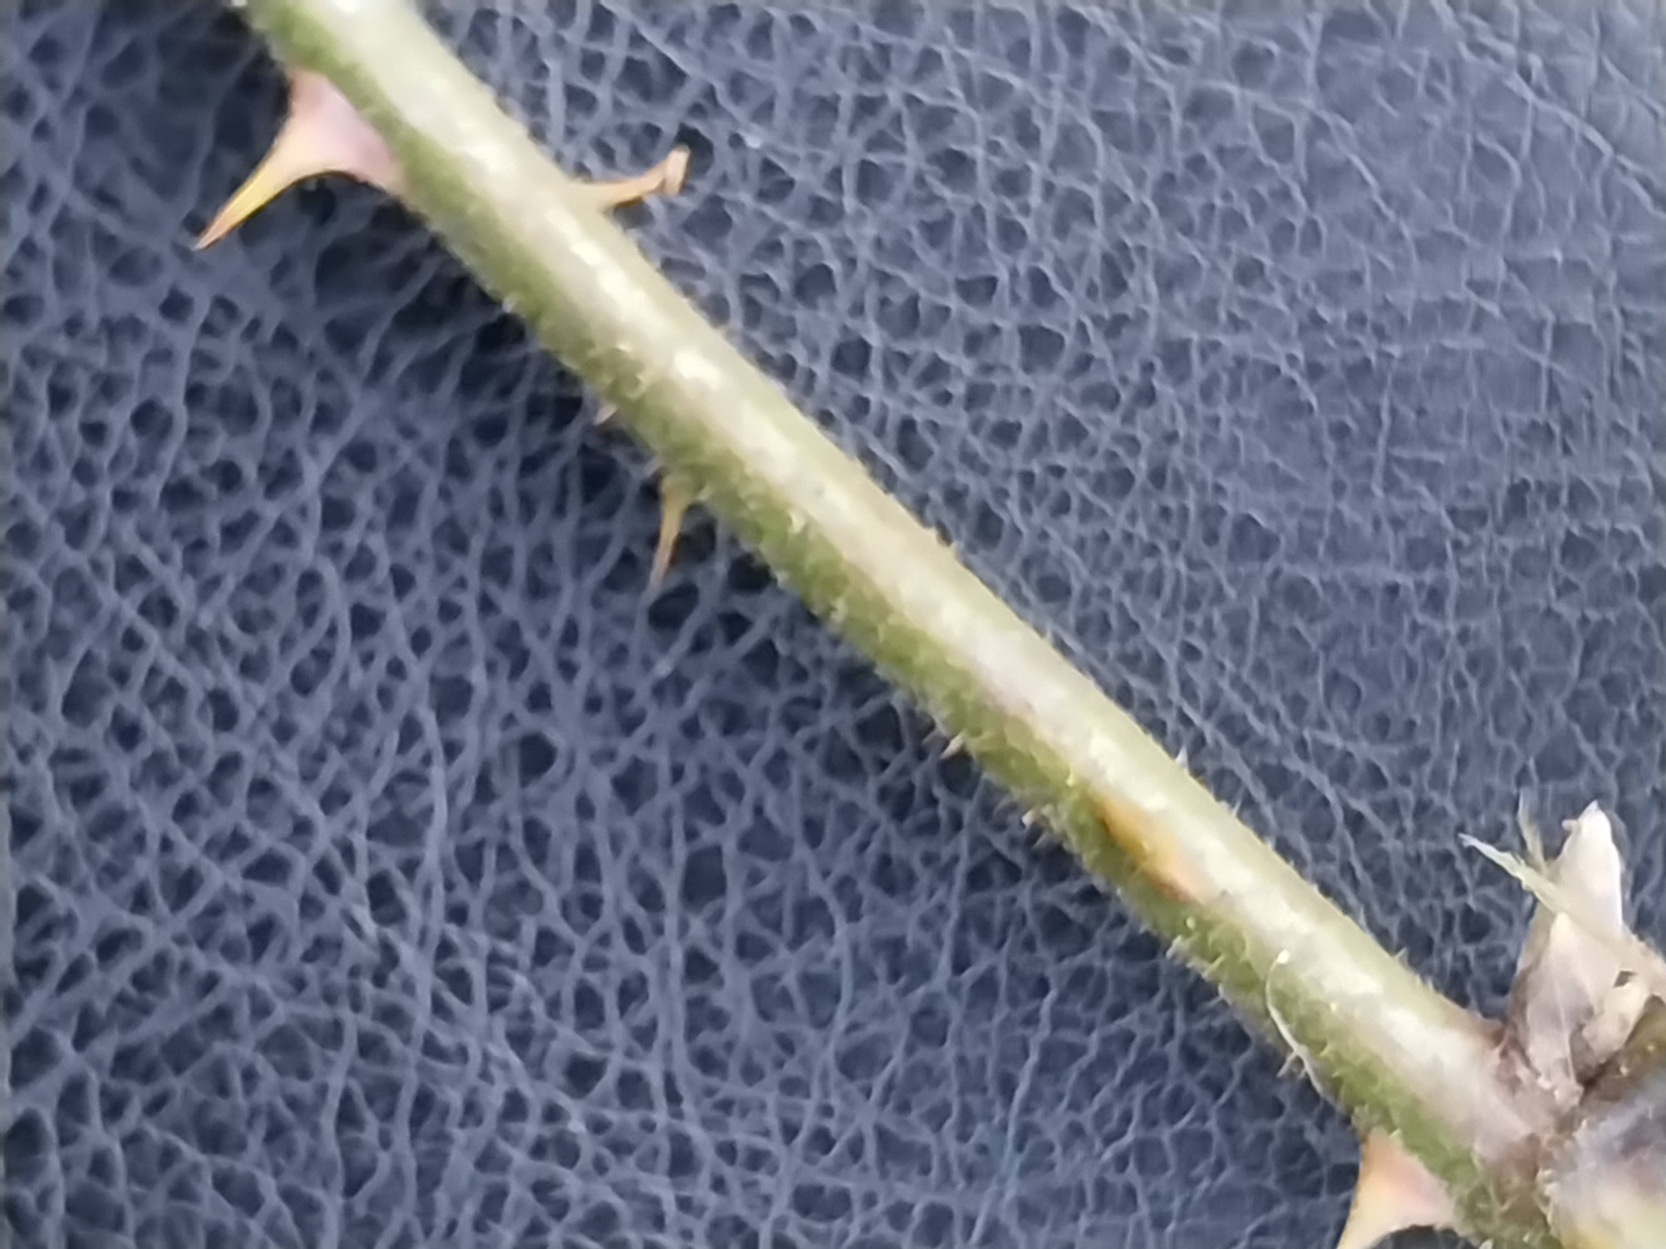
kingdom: Plantae
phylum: Tracheophyta
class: Magnoliopsida
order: Rosales
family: Rosaceae
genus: Rubus
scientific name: Rubus radula
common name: Rasperu brombær
